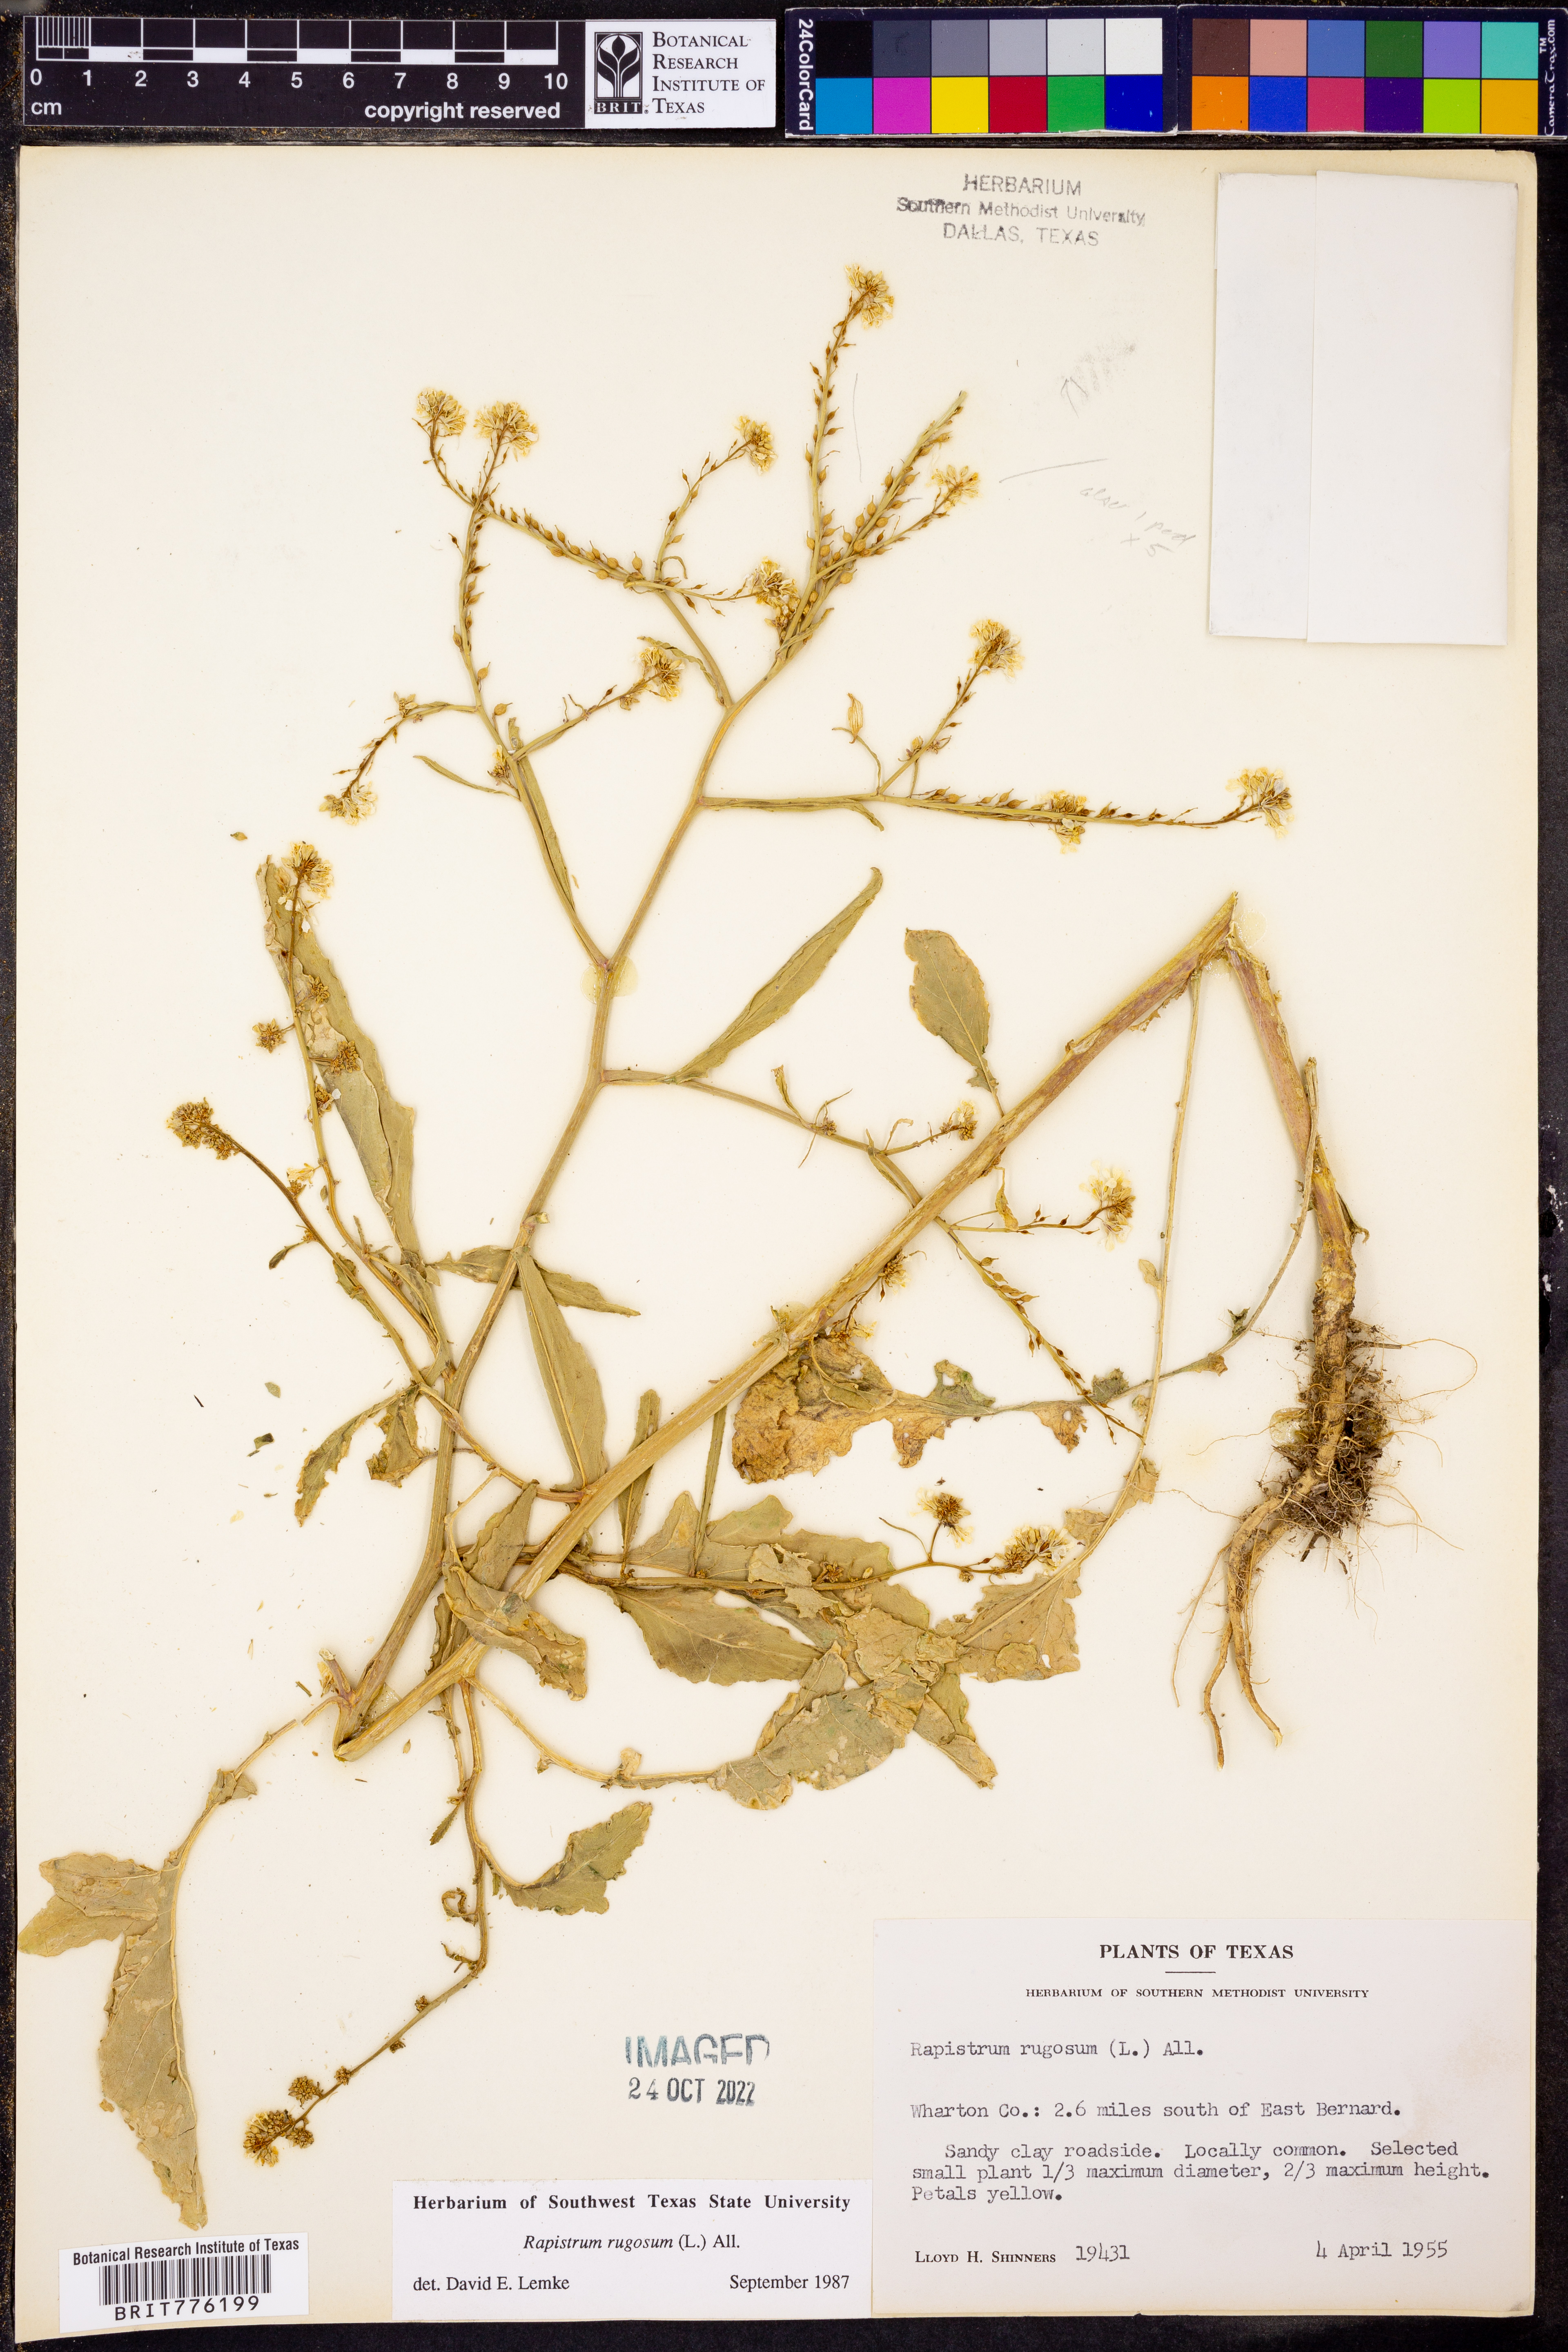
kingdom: Plantae
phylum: Tracheophyta
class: Magnoliopsida
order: Brassicales
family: Brassicaceae
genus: Rapistrum
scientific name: Rapistrum rugosum
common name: Annual bastardcabbage
